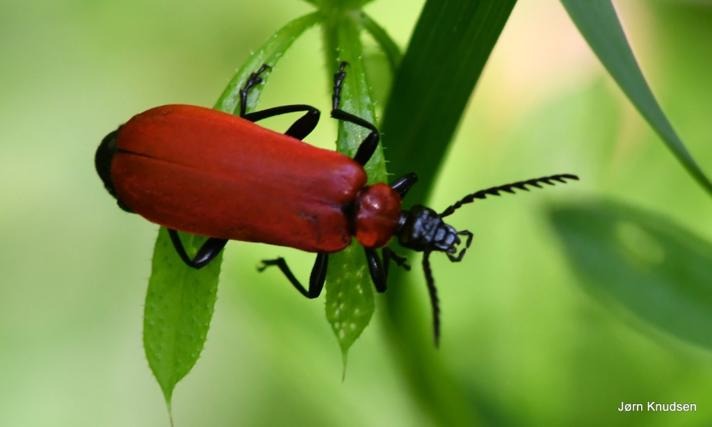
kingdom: Animalia
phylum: Arthropoda
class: Insecta
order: Coleoptera
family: Pyrochroidae
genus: Pyrochroa
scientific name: Pyrochroa coccinea
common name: Sorthovedet kardinalbille
